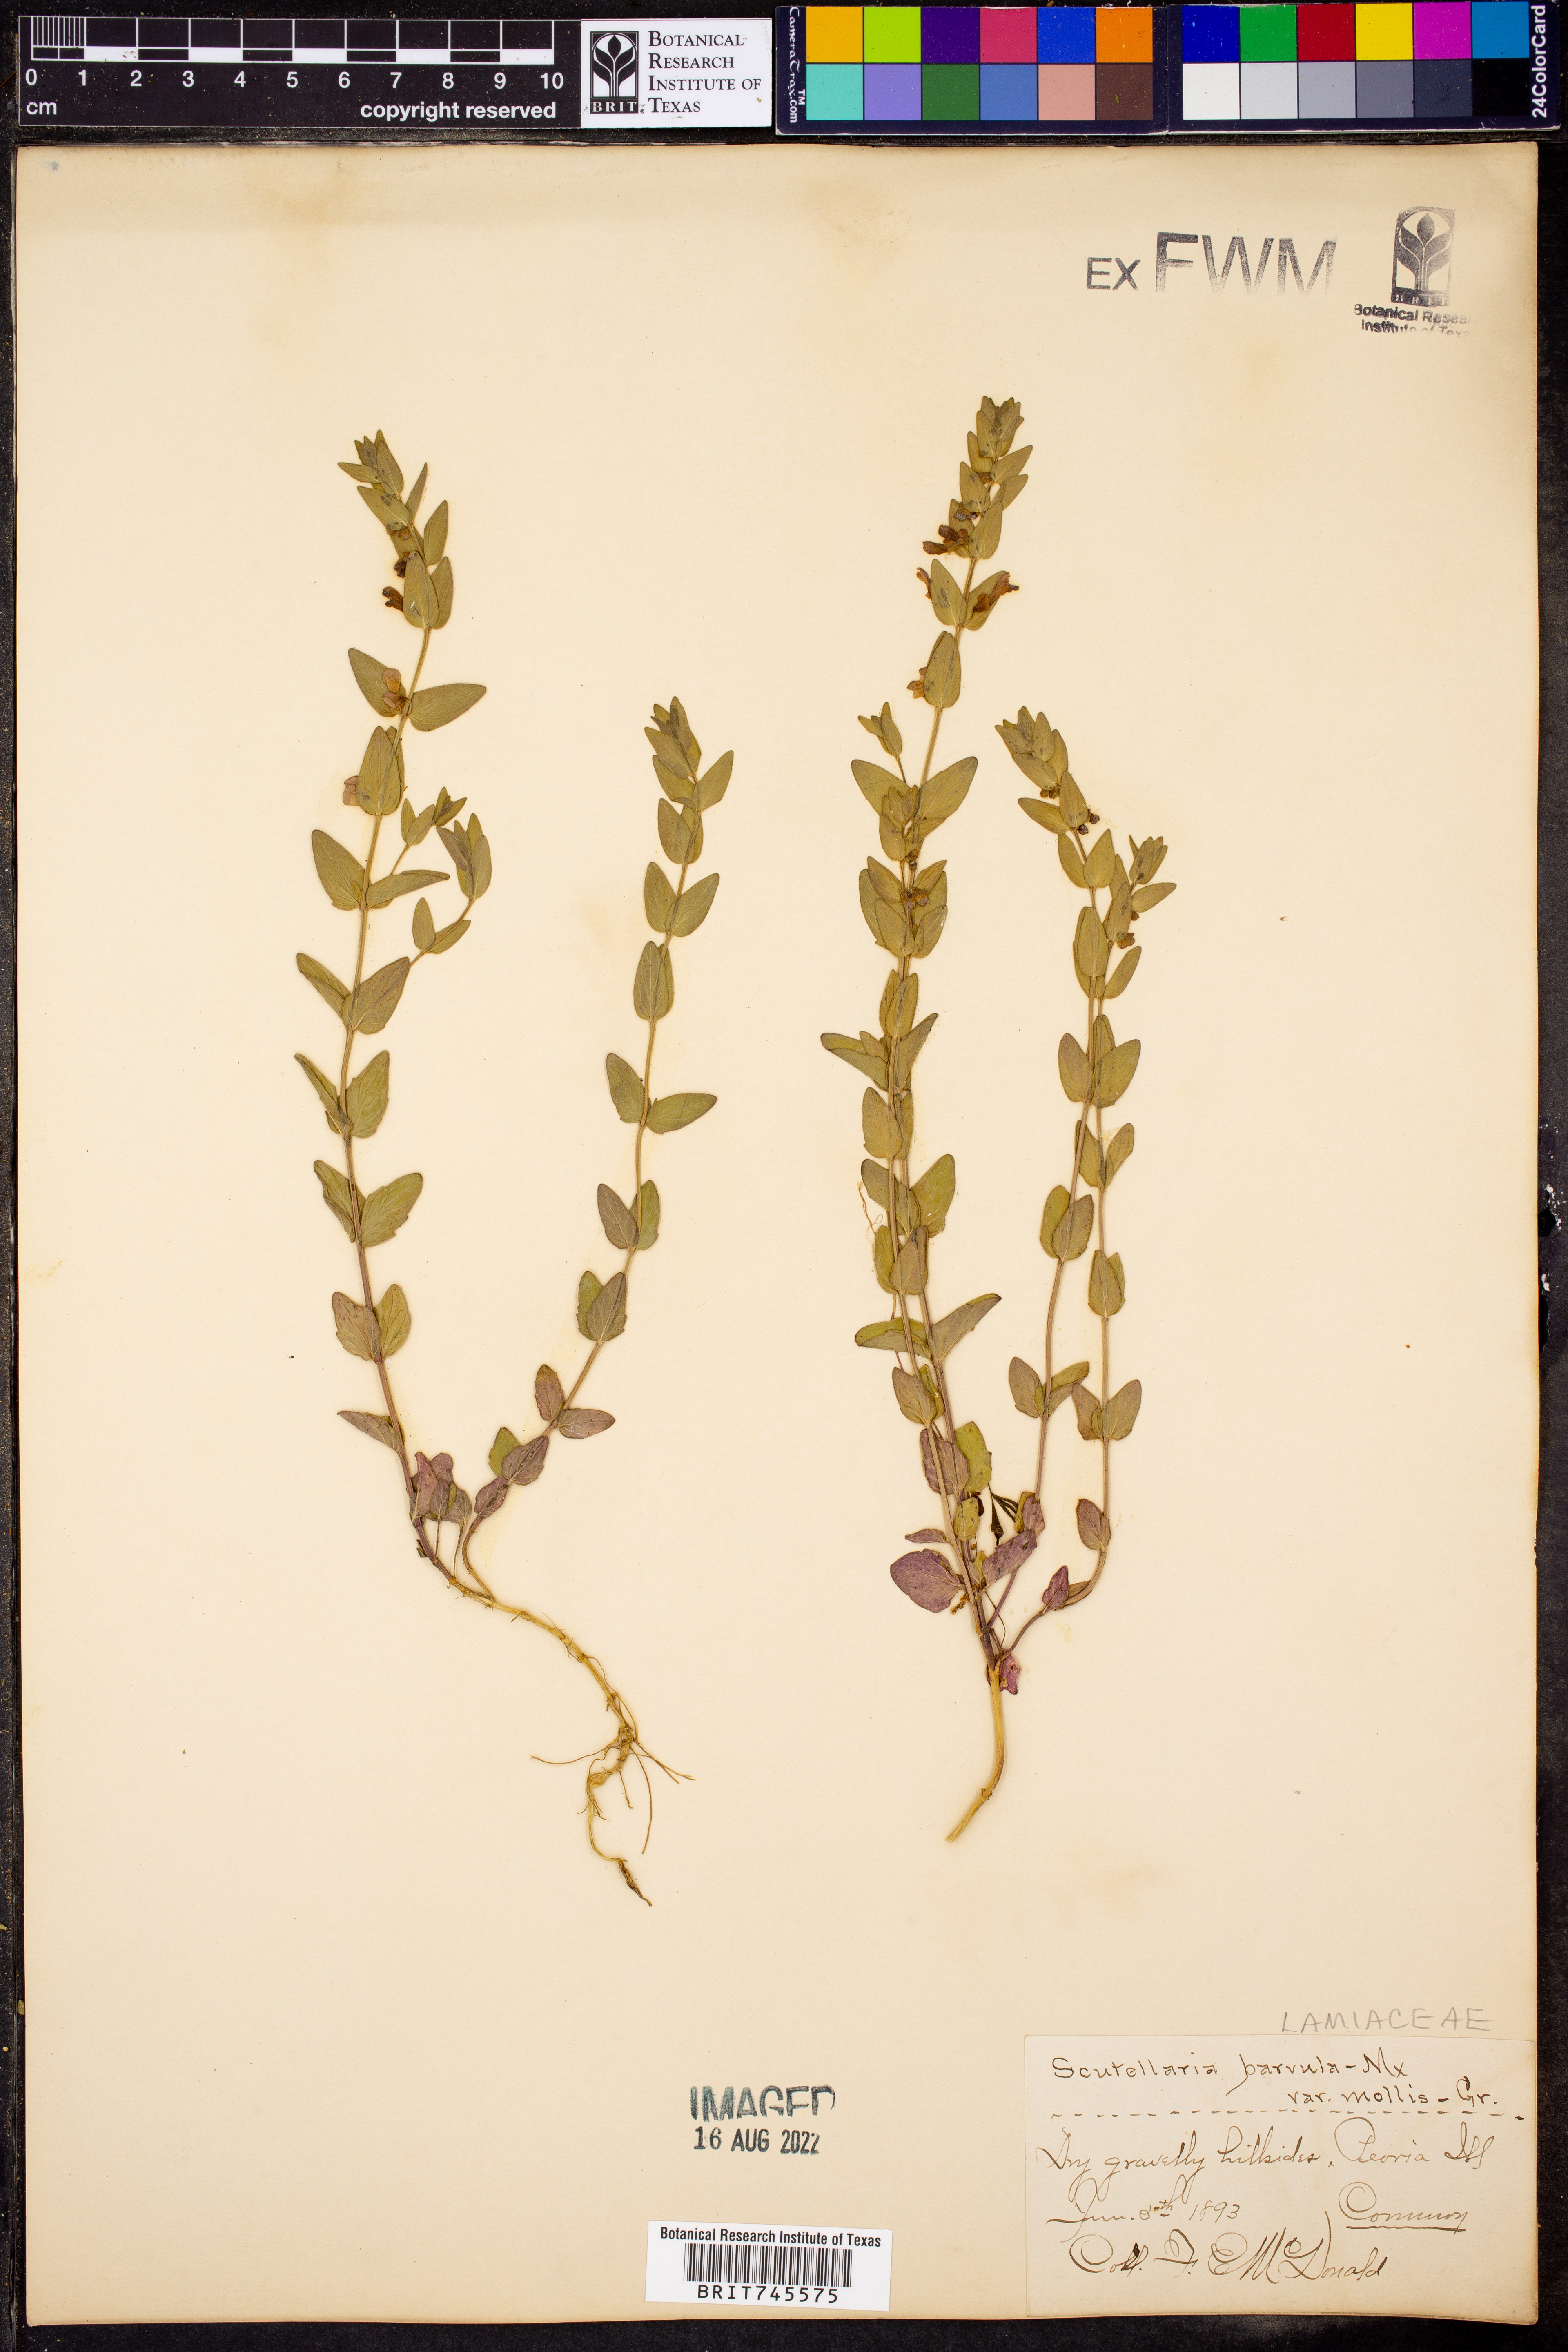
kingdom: Plantae
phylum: Tracheophyta
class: Magnoliopsida
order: Lamiales
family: Lamiaceae
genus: Scutellaria
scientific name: Scutellaria parvula
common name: Little scullcap
